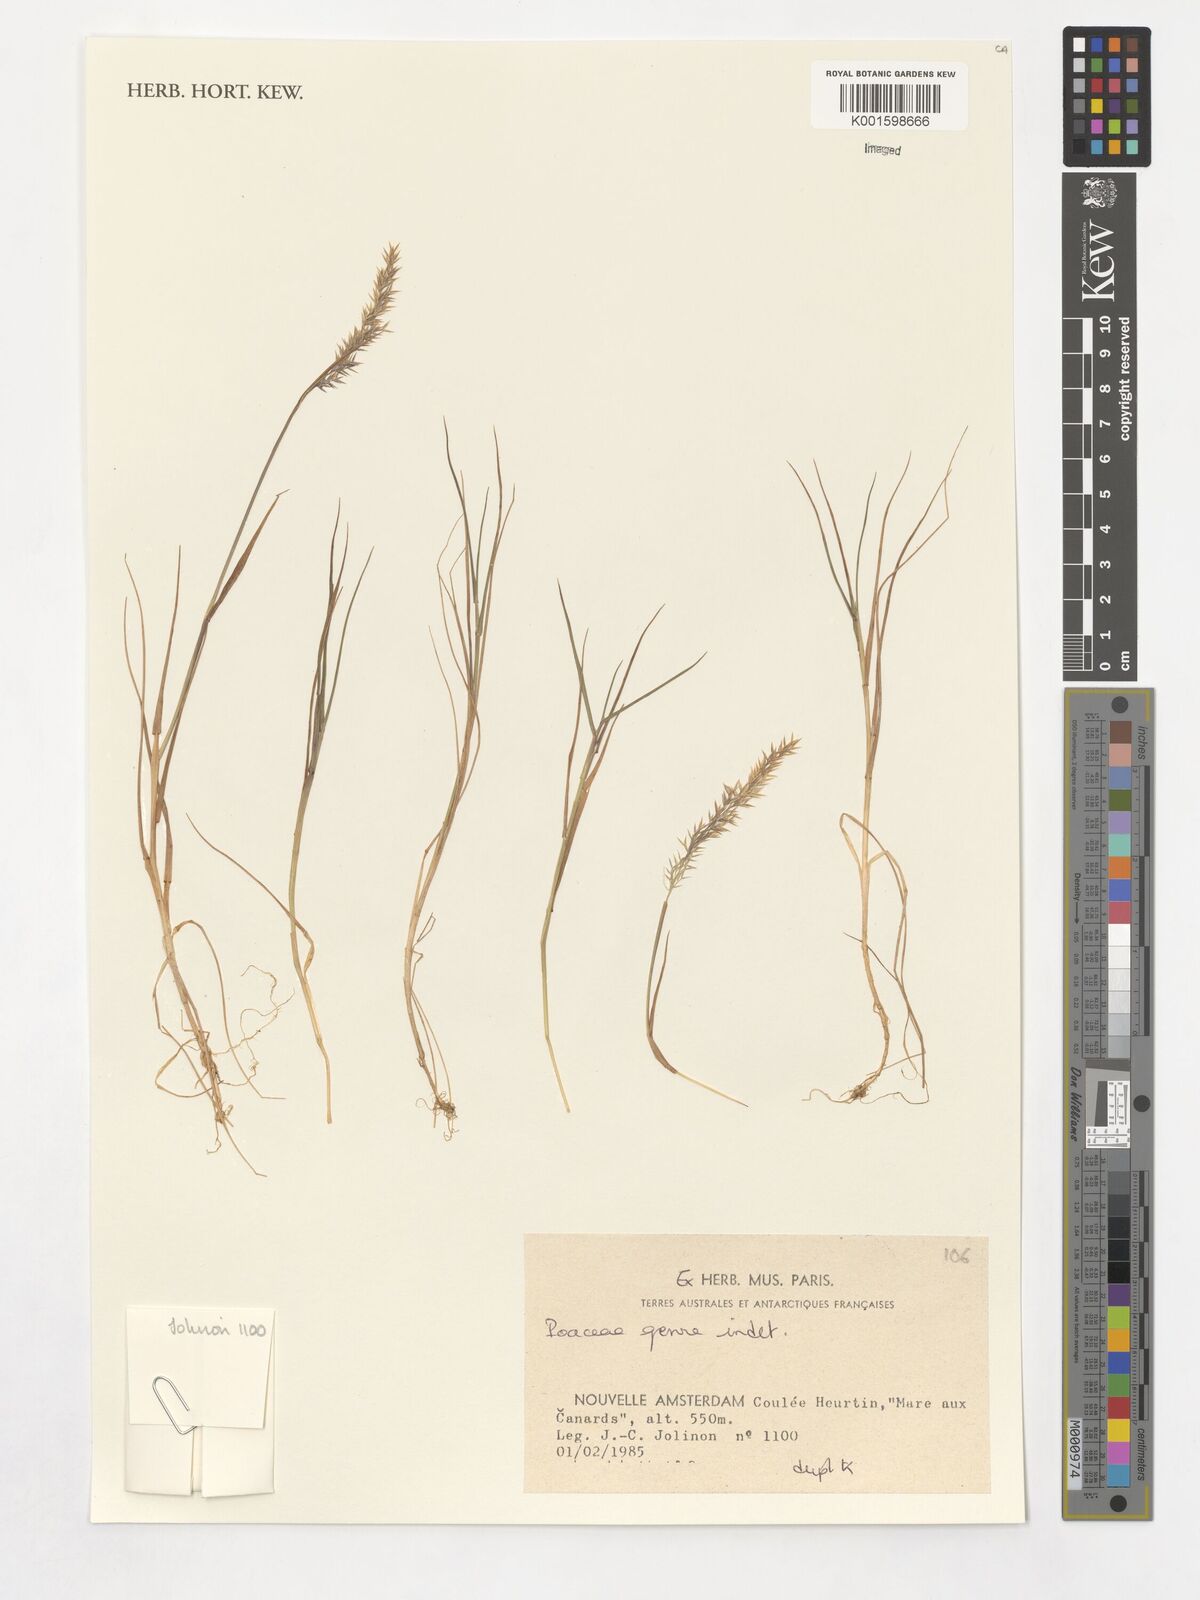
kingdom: Plantae
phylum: Tracheophyta
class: Liliopsida
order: Poales
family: Poaceae
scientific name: Poaceae
